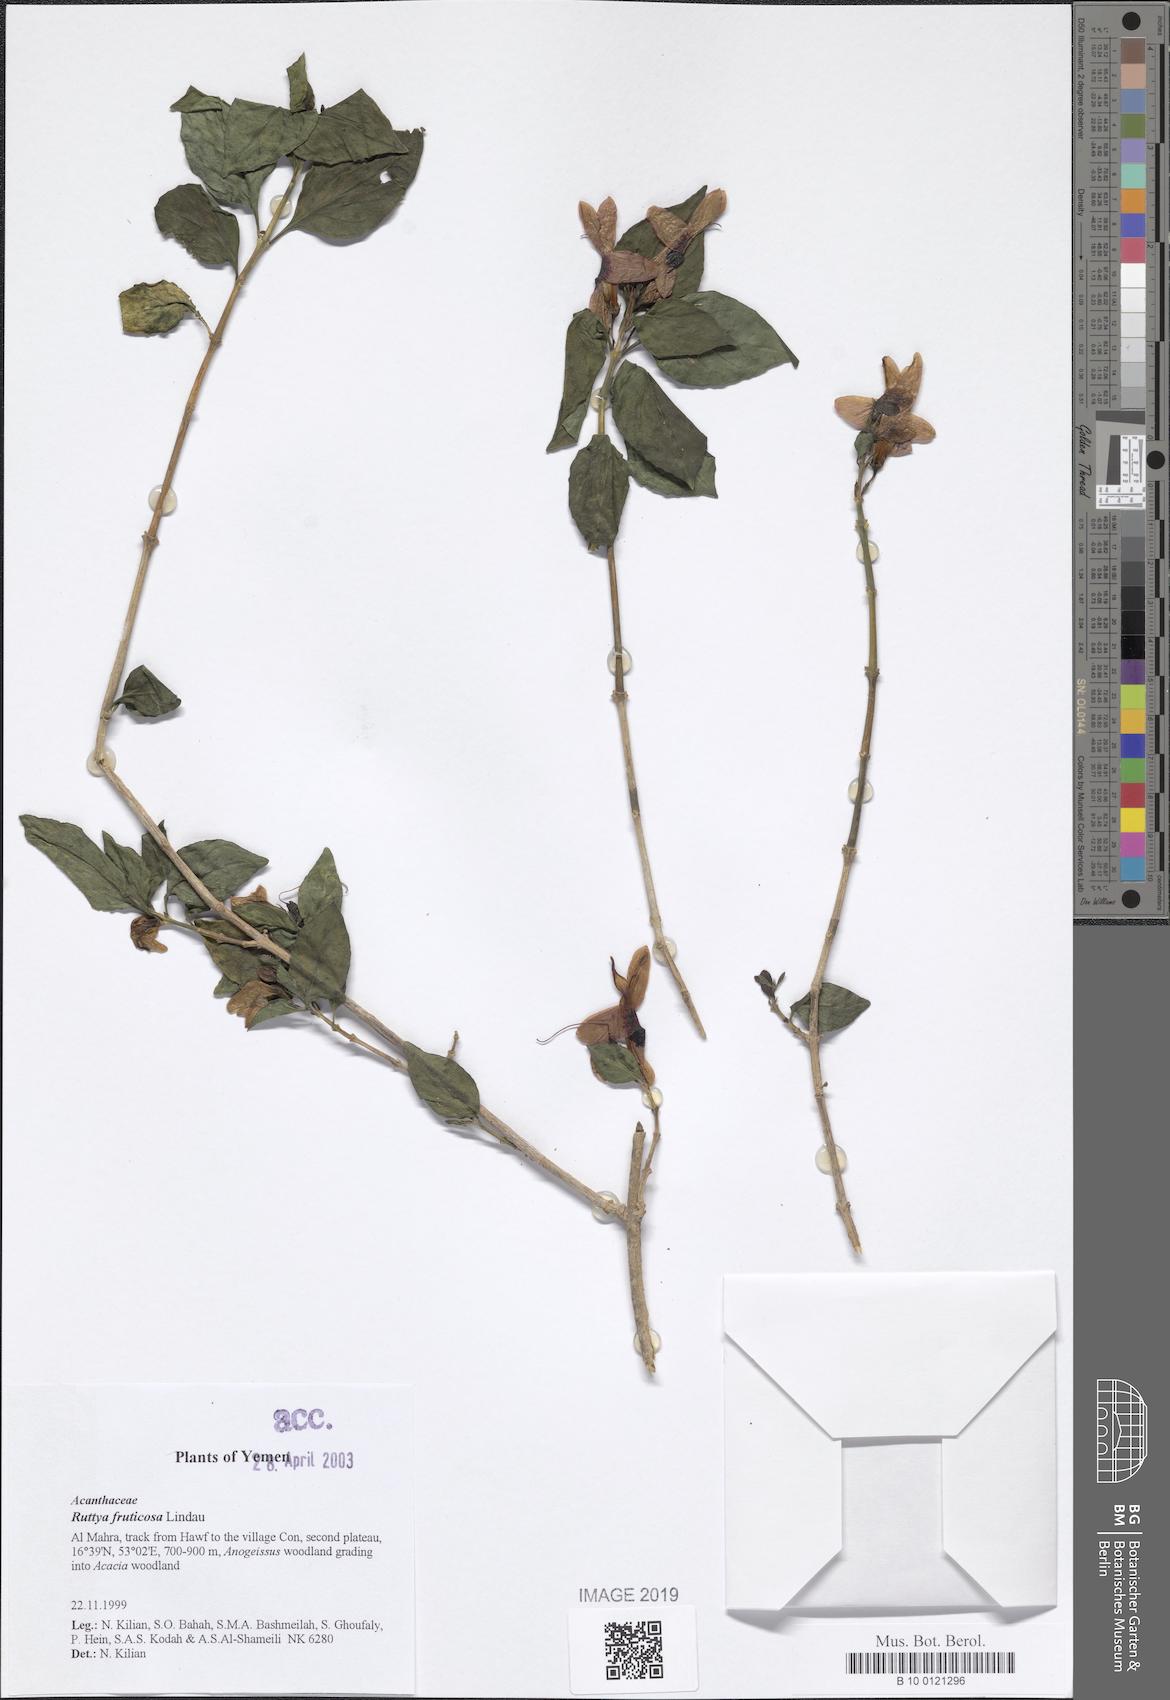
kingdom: Plantae
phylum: Tracheophyta
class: Magnoliopsida
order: Lamiales
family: Acanthaceae
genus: Ruttya
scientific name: Ruttya fruticosa
